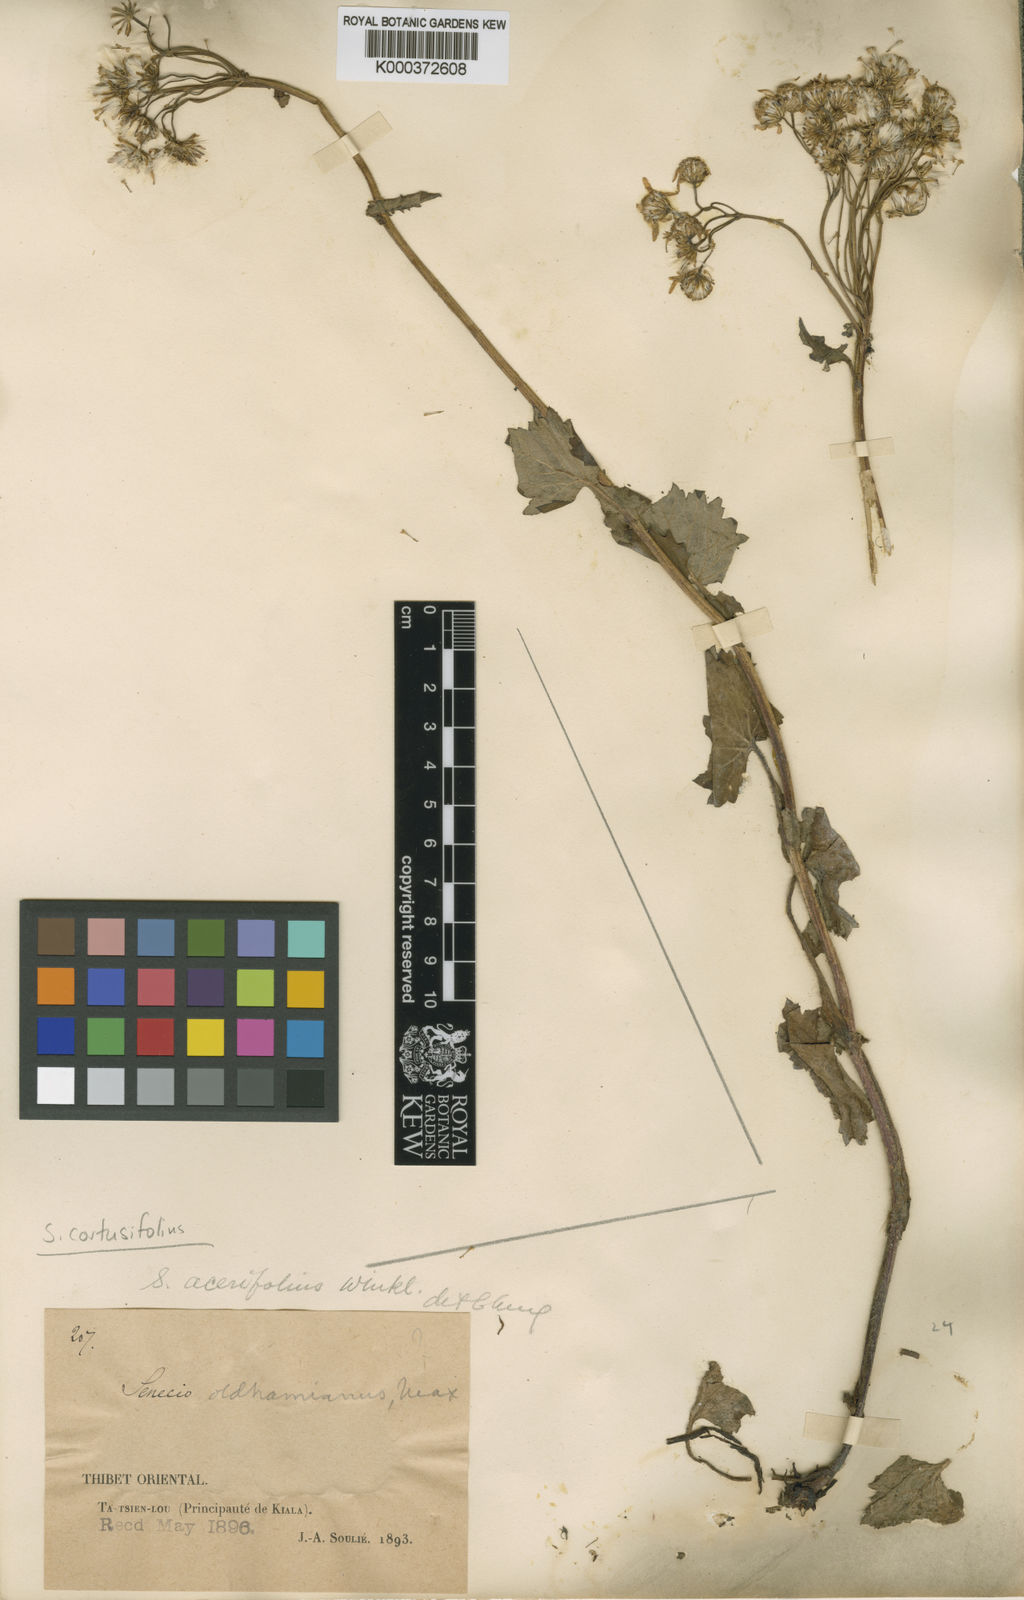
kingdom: Plantae
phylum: Tracheophyta
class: Magnoliopsida
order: Asterales
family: Asteraceae
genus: Sinosenecio
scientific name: Sinosenecio euosmus
